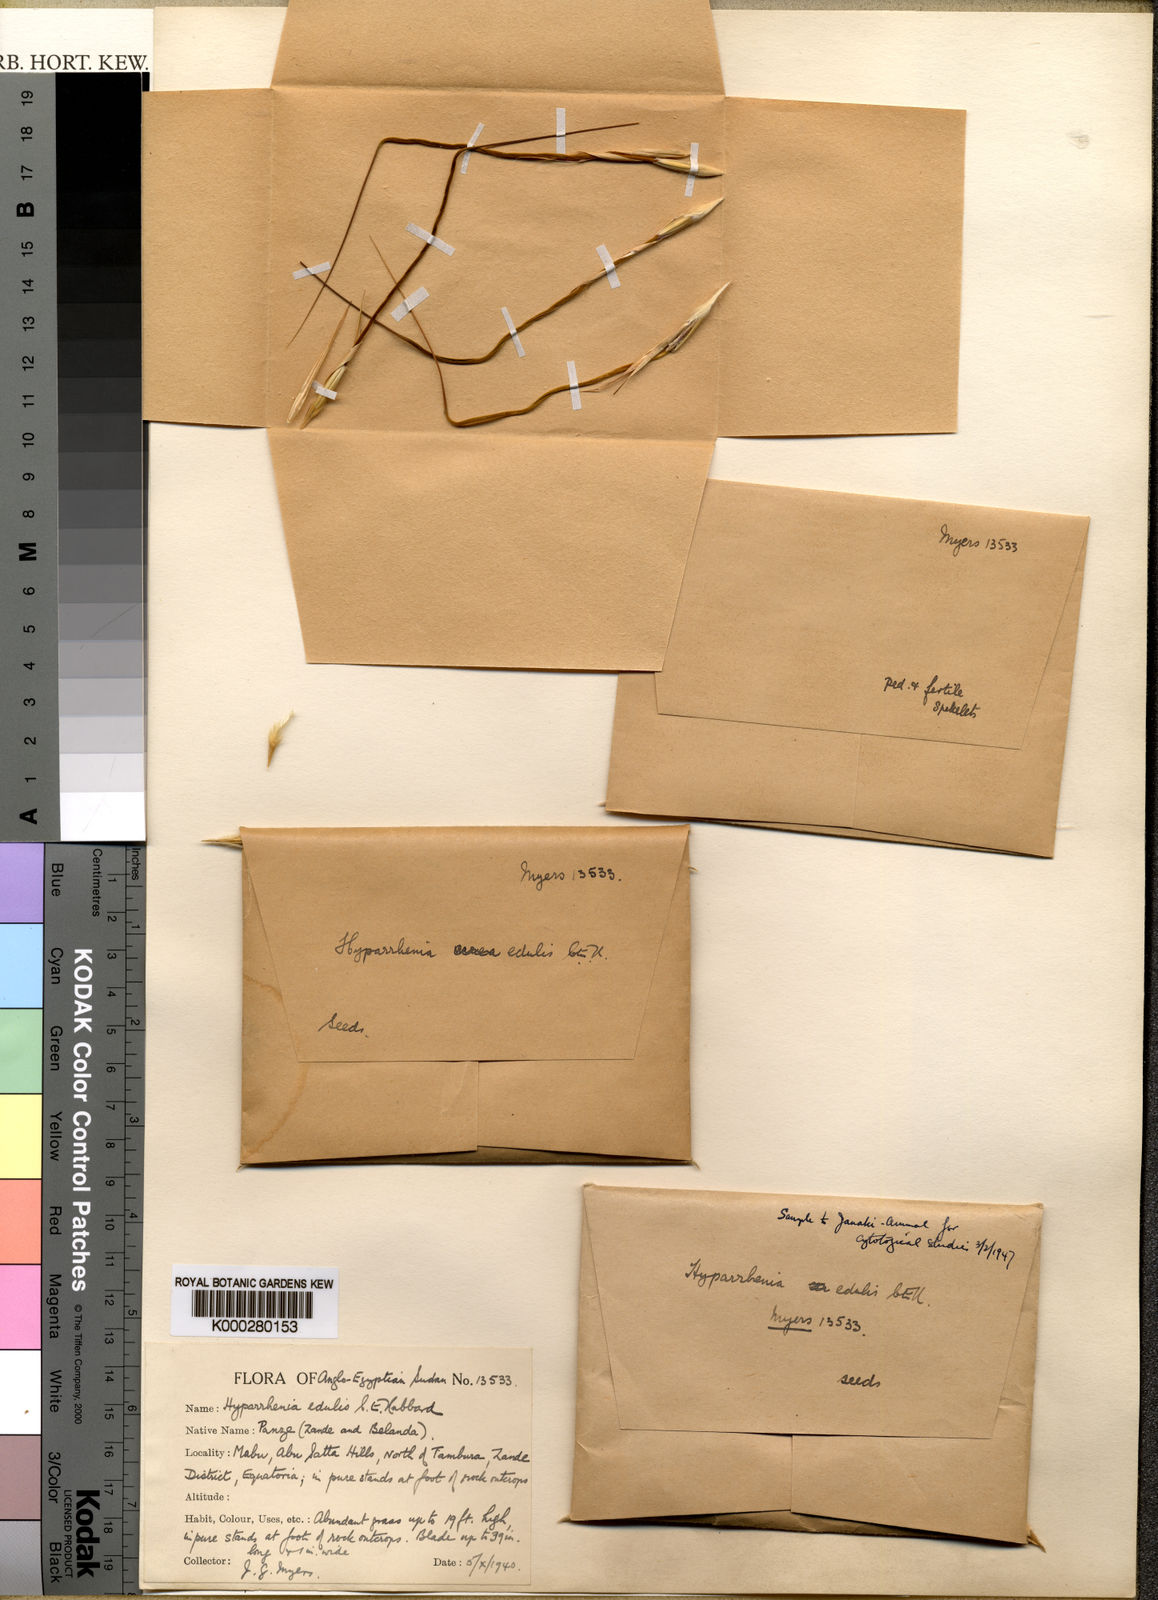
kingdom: Plantae
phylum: Tracheophyta
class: Liliopsida
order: Poales
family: Poaceae
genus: Hyperthelia
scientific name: Hyperthelia edulis
